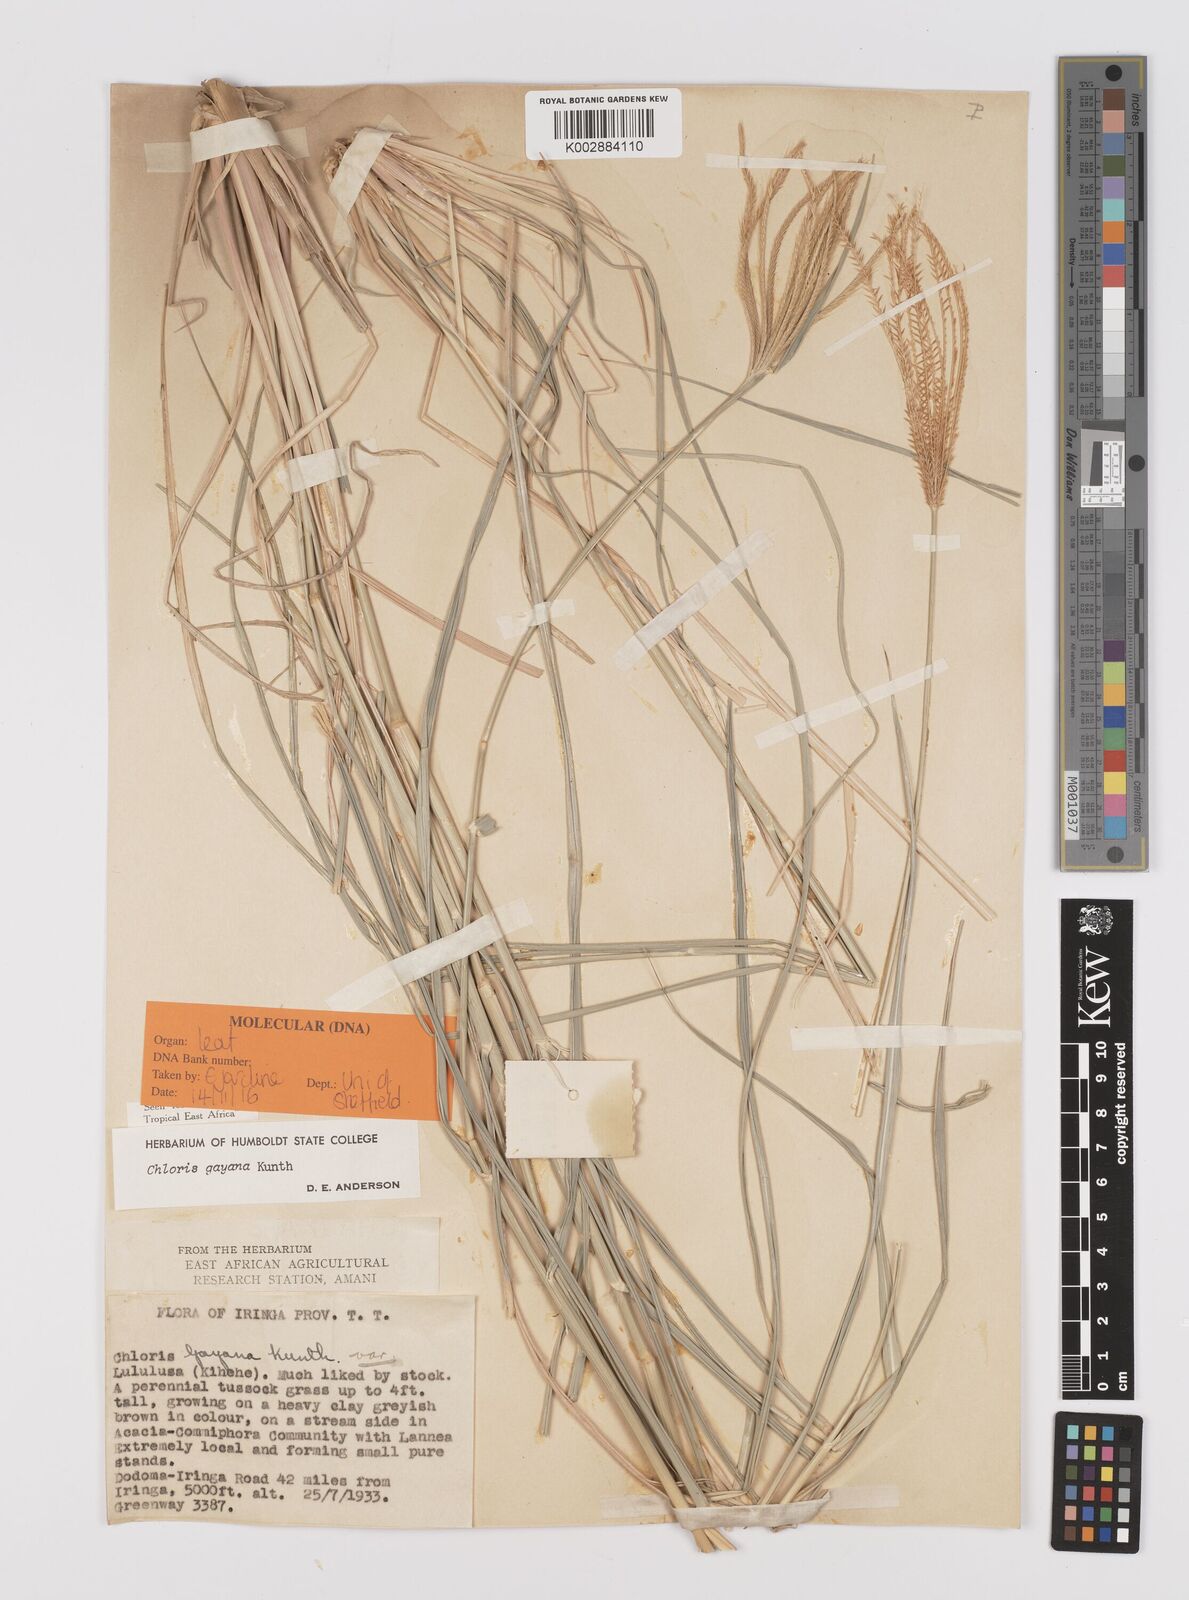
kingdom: Plantae
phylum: Tracheophyta
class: Liliopsida
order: Poales
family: Poaceae
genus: Chloris
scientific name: Chloris gayana
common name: Rhodes grass
